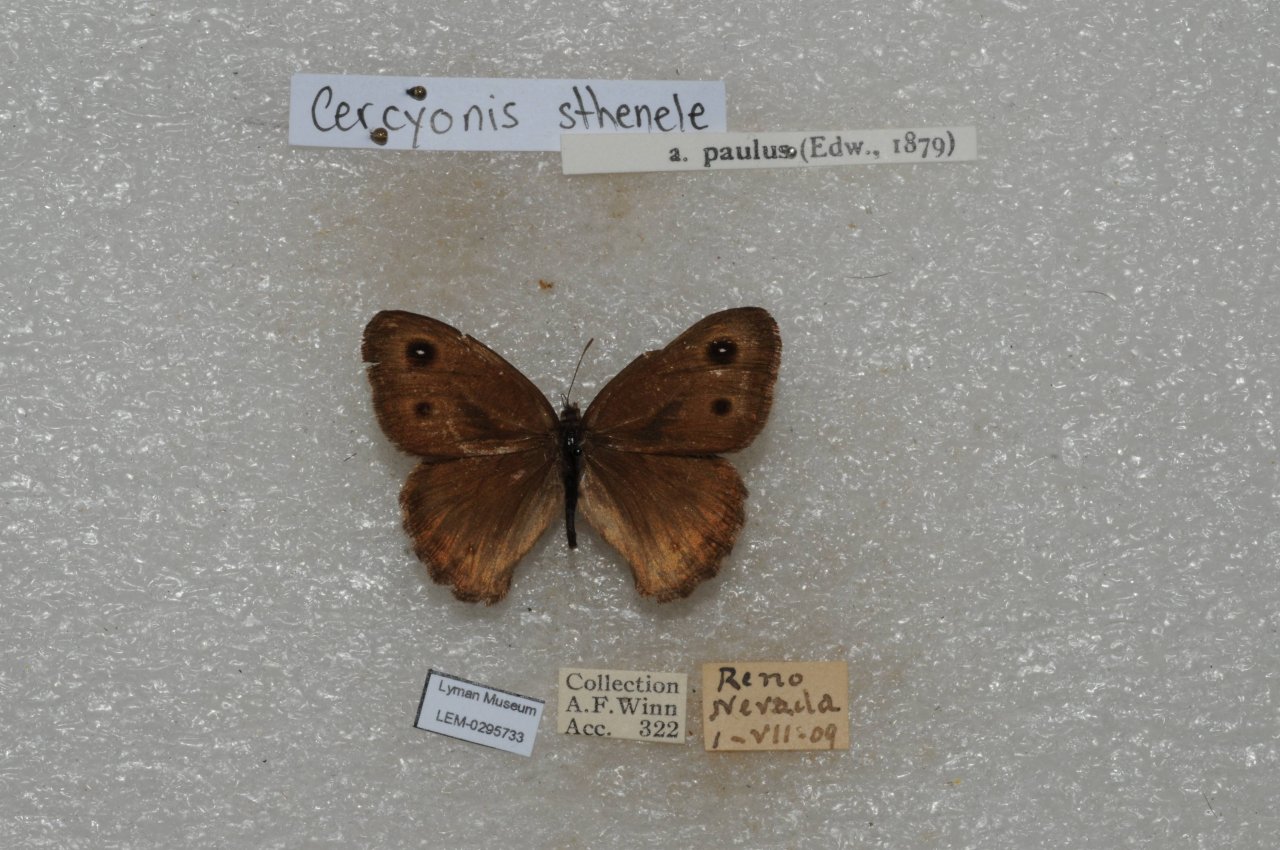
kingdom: Animalia
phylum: Arthropoda
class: Insecta
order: Lepidoptera
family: Nymphalidae
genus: Cercyonis
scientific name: Cercyonis sthenele
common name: Great Basin Wood-Nymph
